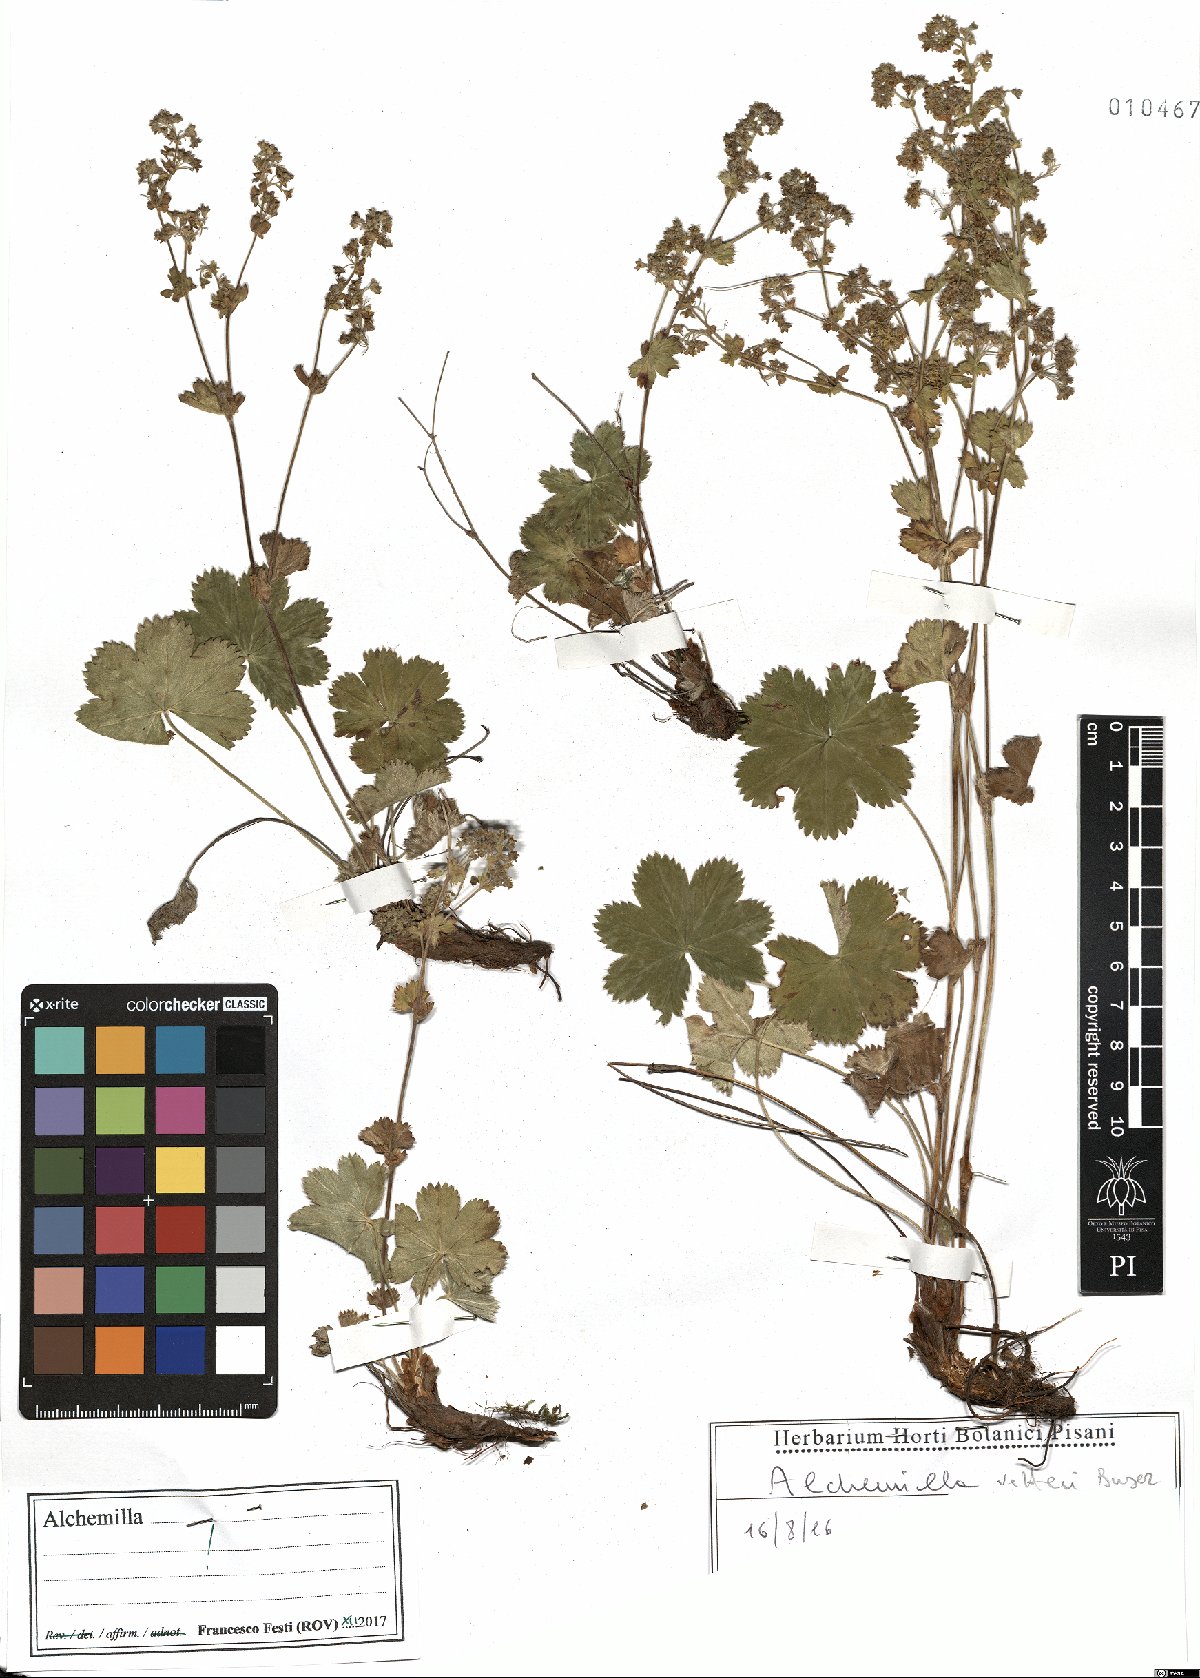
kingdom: Plantae
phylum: Tracheophyta
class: Magnoliopsida
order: Rosales
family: Rosaceae
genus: Alchemilla
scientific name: Alchemilla vetteri
